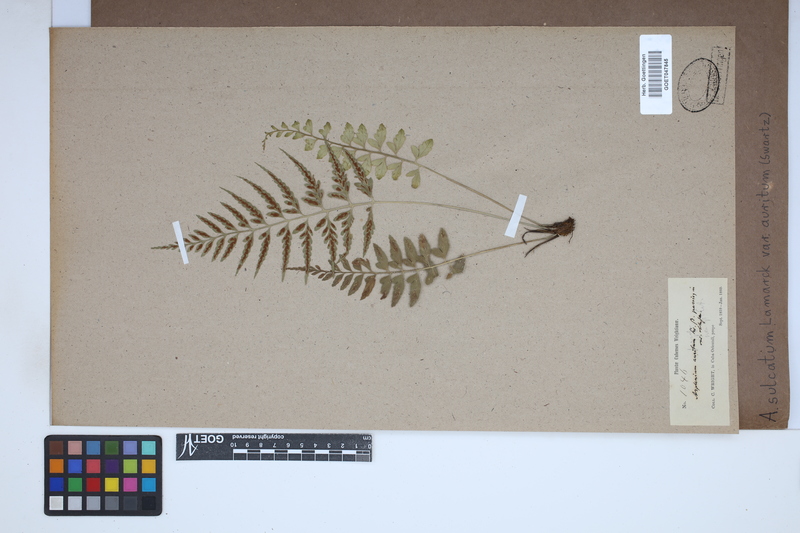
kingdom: Plantae
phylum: Tracheophyta
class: Polypodiopsida
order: Polypodiales
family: Aspleniaceae
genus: Asplenium
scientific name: Asplenium auritum
